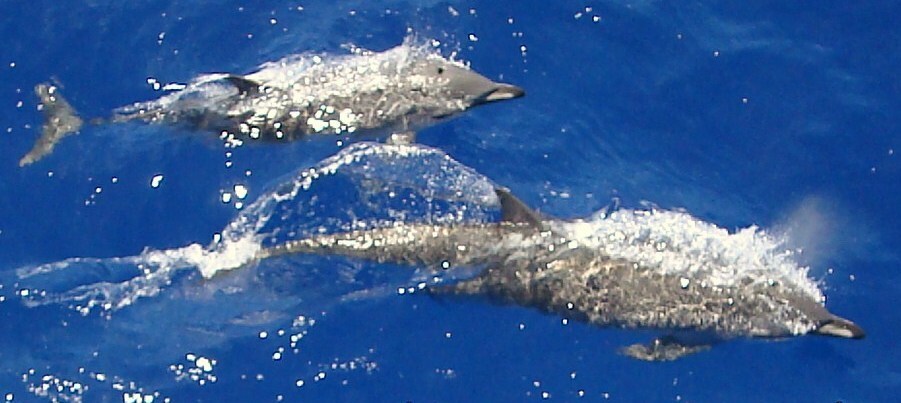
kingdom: Animalia
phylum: Chordata
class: Mammalia
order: Cetacea
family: Delphinidae
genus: Stenella
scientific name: Stenella clymene
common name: Clymene Dolphin
